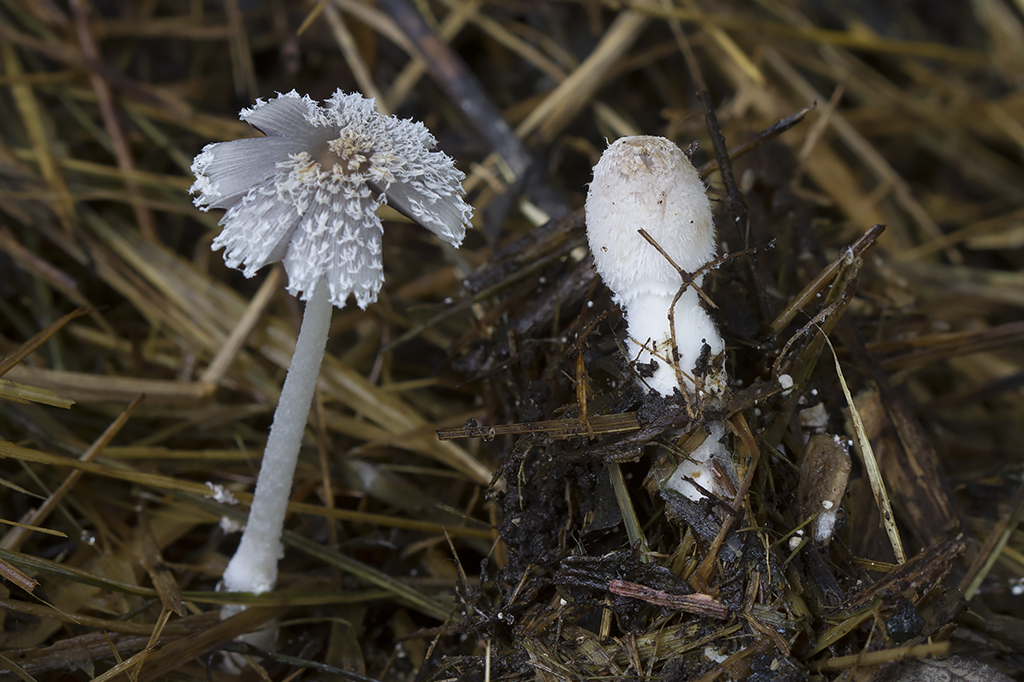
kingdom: Fungi
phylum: Basidiomycota
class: Agaricomycetes
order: Agaricales
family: Psathyrellaceae
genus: Coprinopsis
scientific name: Coprinopsis cinerea
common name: mødding-blækhat
